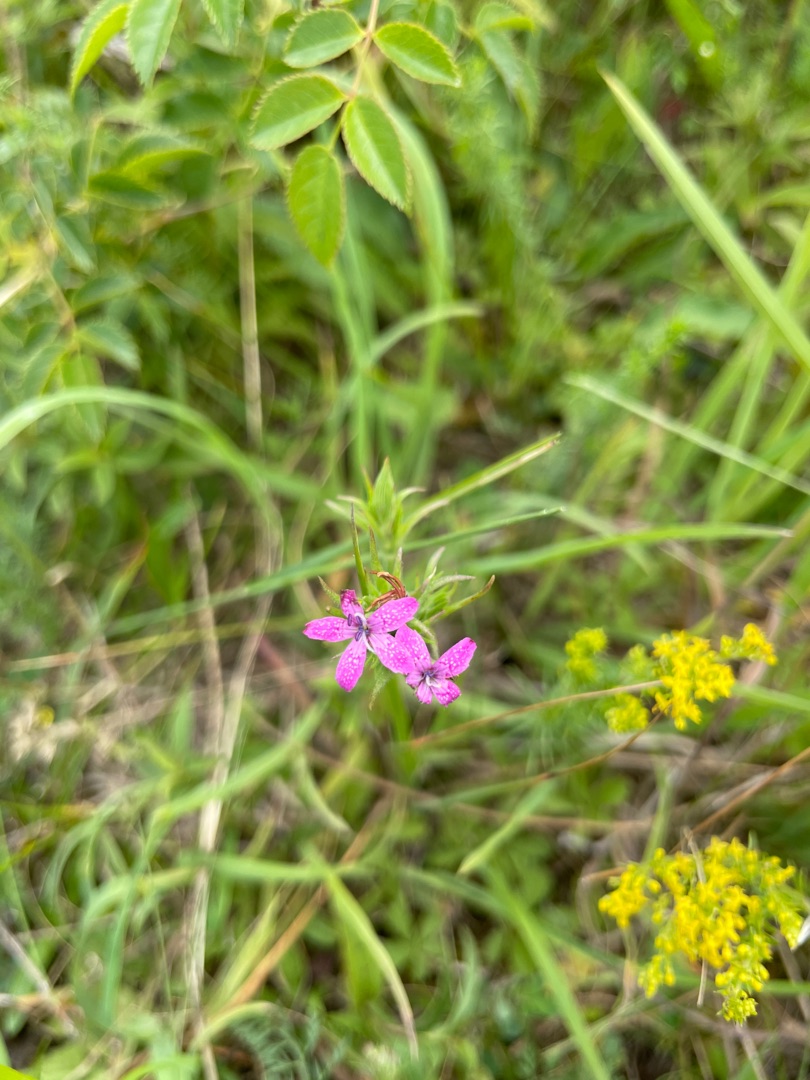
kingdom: Plantae
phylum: Tracheophyta
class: Magnoliopsida
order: Caryophyllales
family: Caryophyllaceae
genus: Dianthus
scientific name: Dianthus armeria
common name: Kost-nellike
